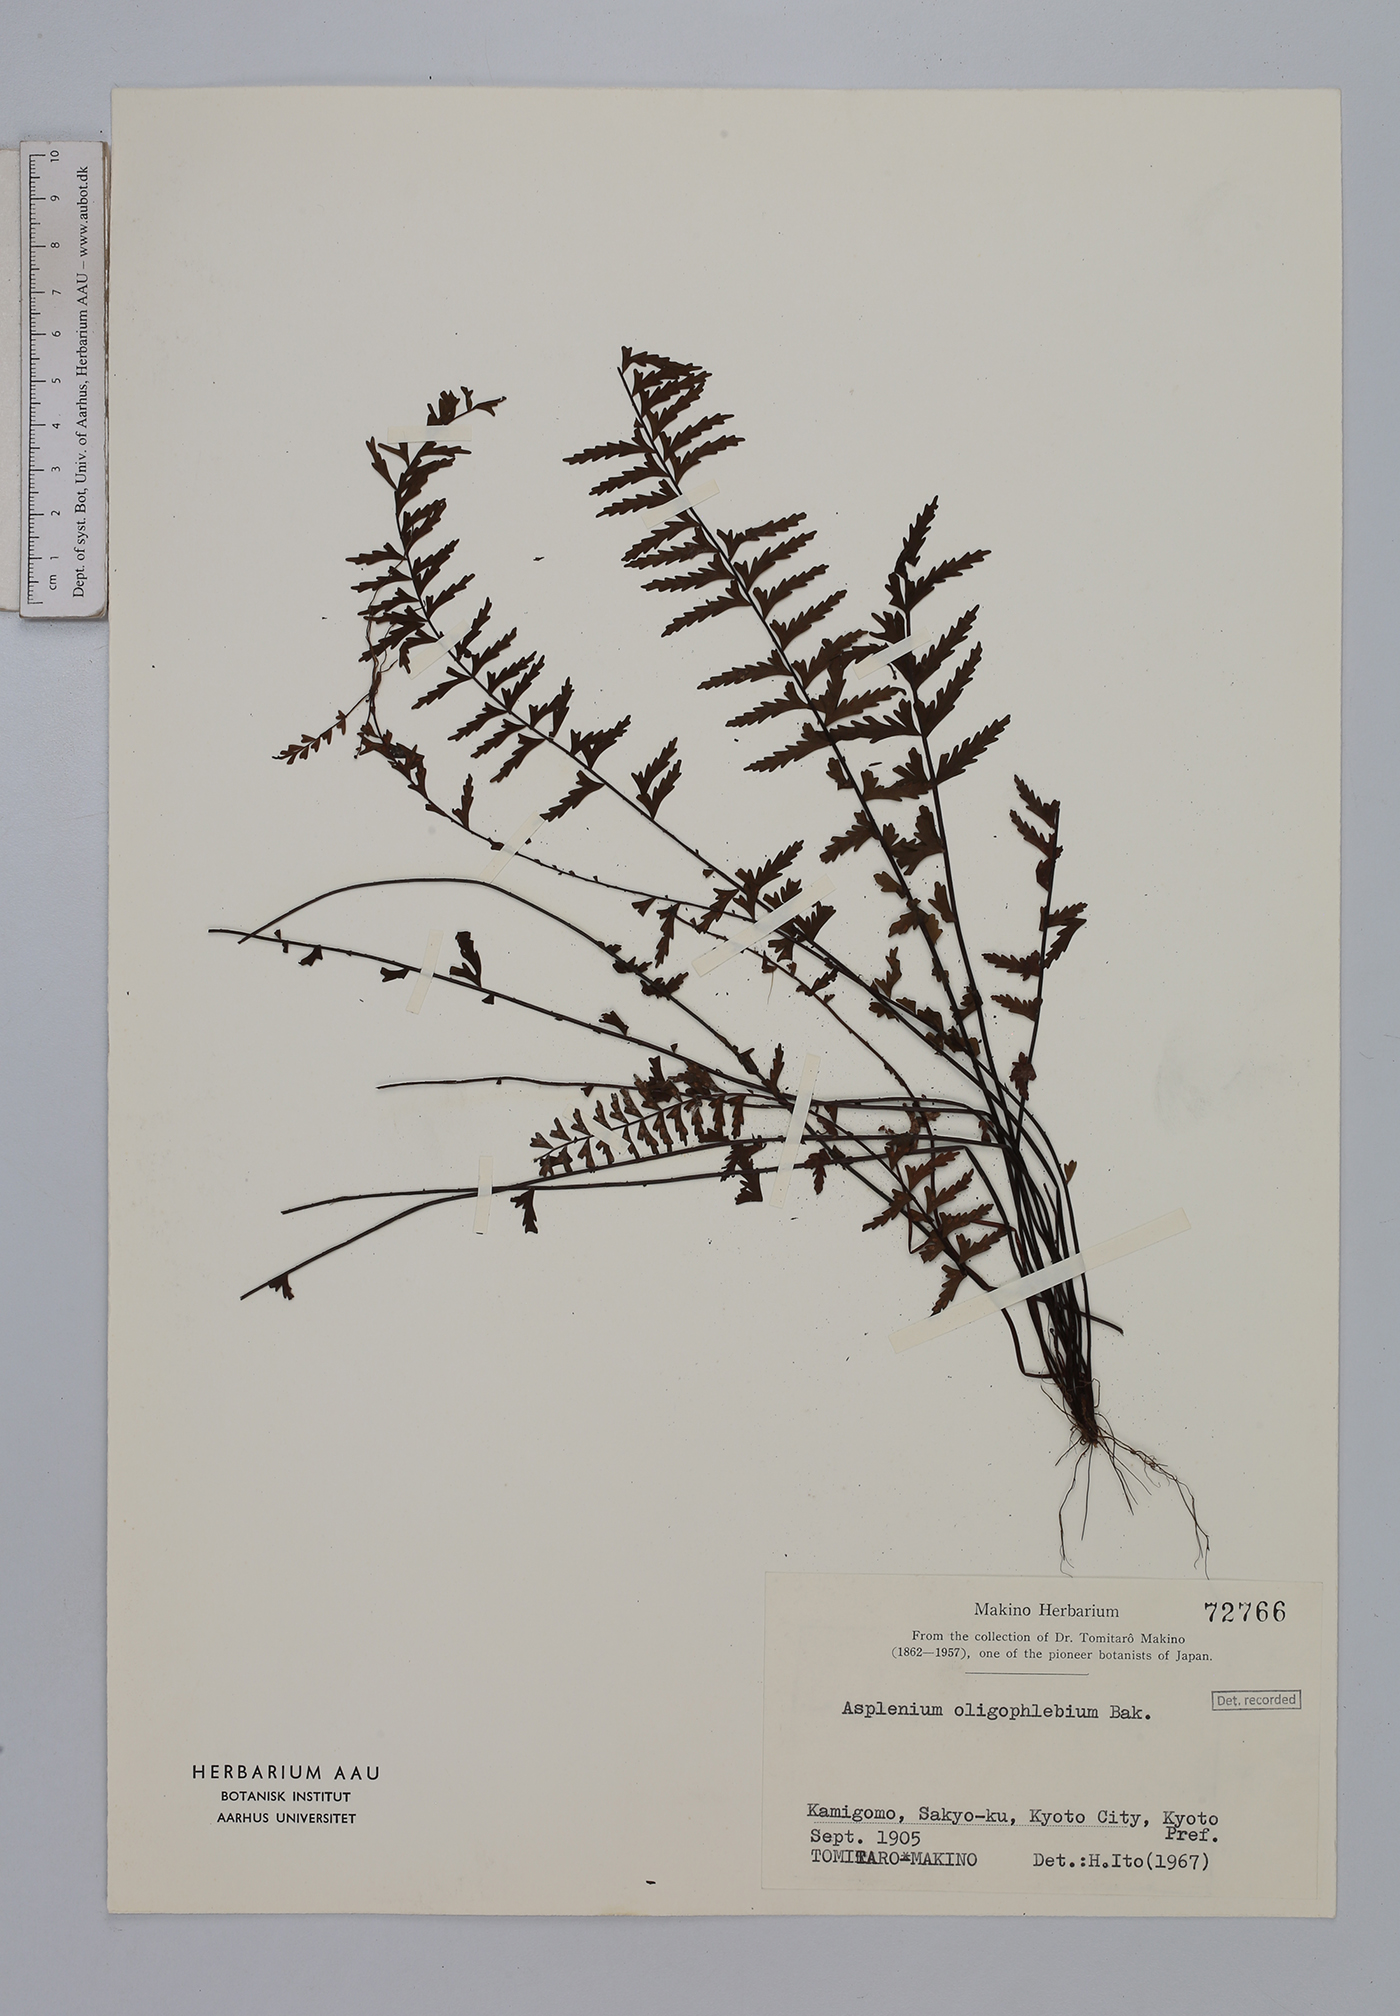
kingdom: Plantae
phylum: Tracheophyta
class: Polypodiopsida
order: Polypodiales
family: Aspleniaceae
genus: Asplenium
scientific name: Asplenium oligophlebium
